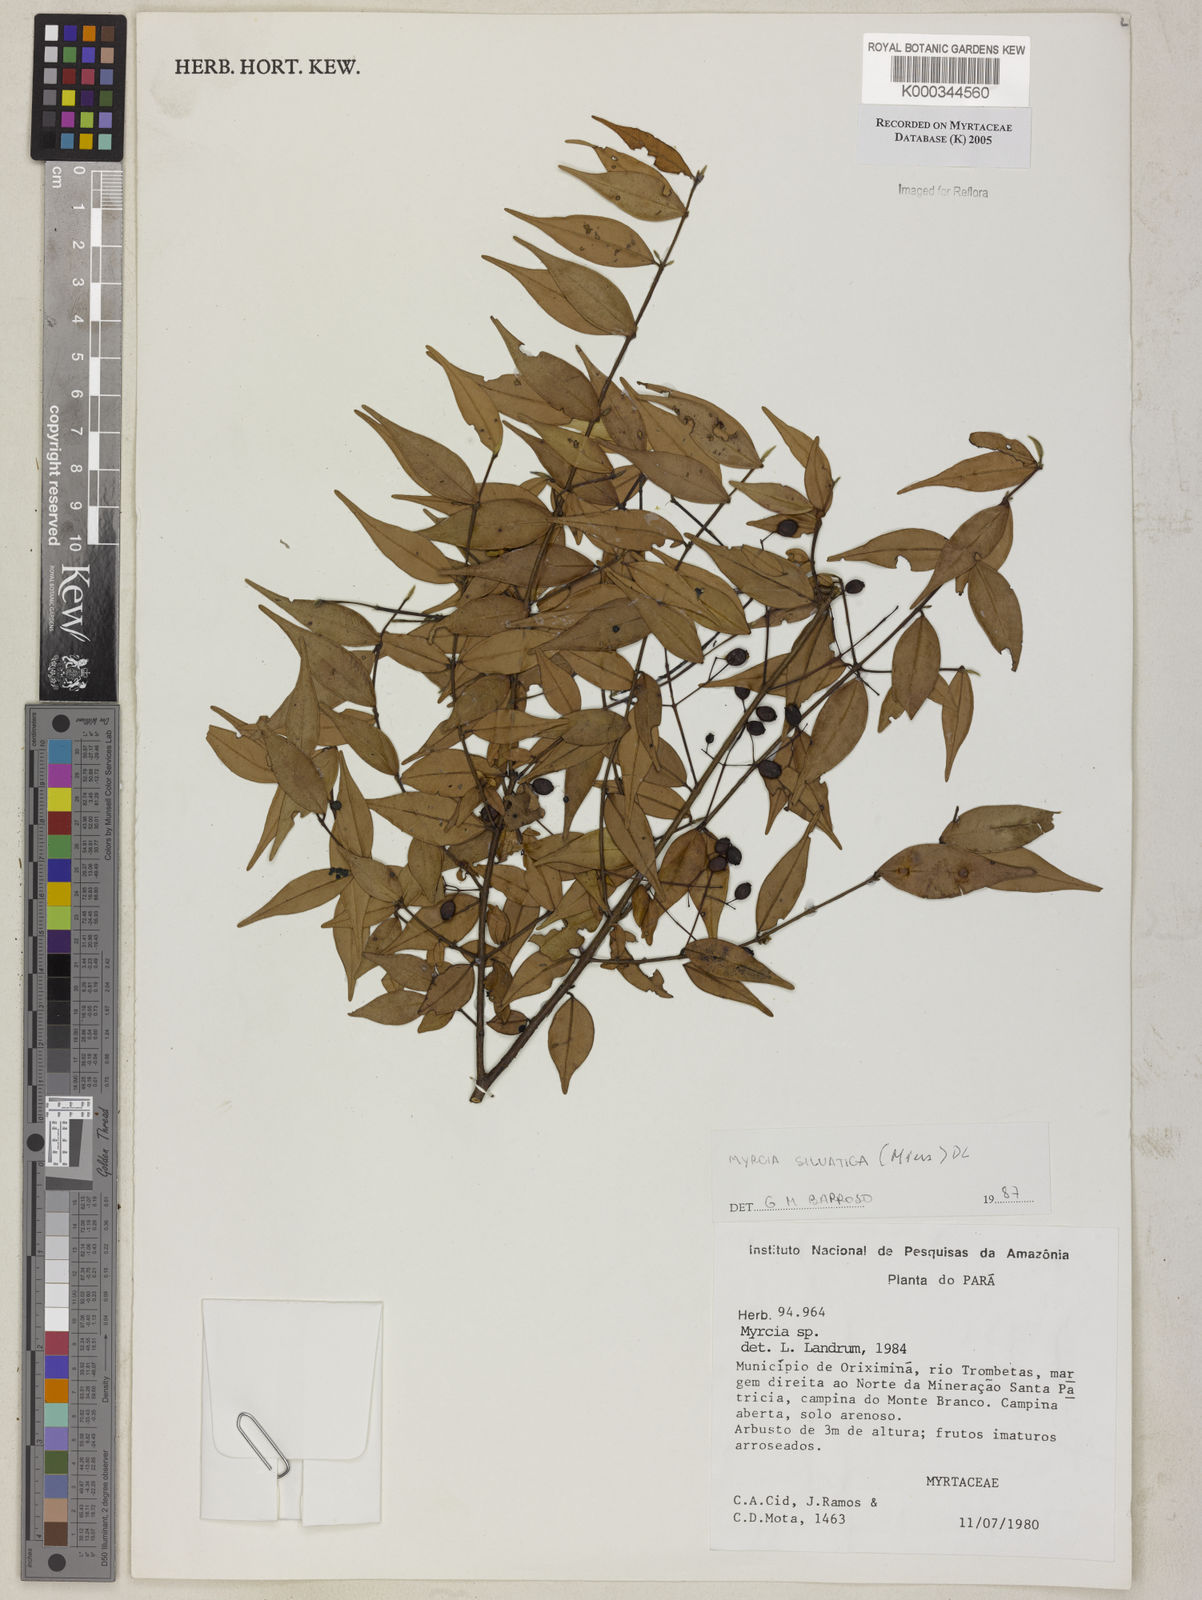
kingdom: Plantae
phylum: Tracheophyta
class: Magnoliopsida
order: Myrtales
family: Myrtaceae
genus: Myrcia
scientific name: Myrcia sylvatica
